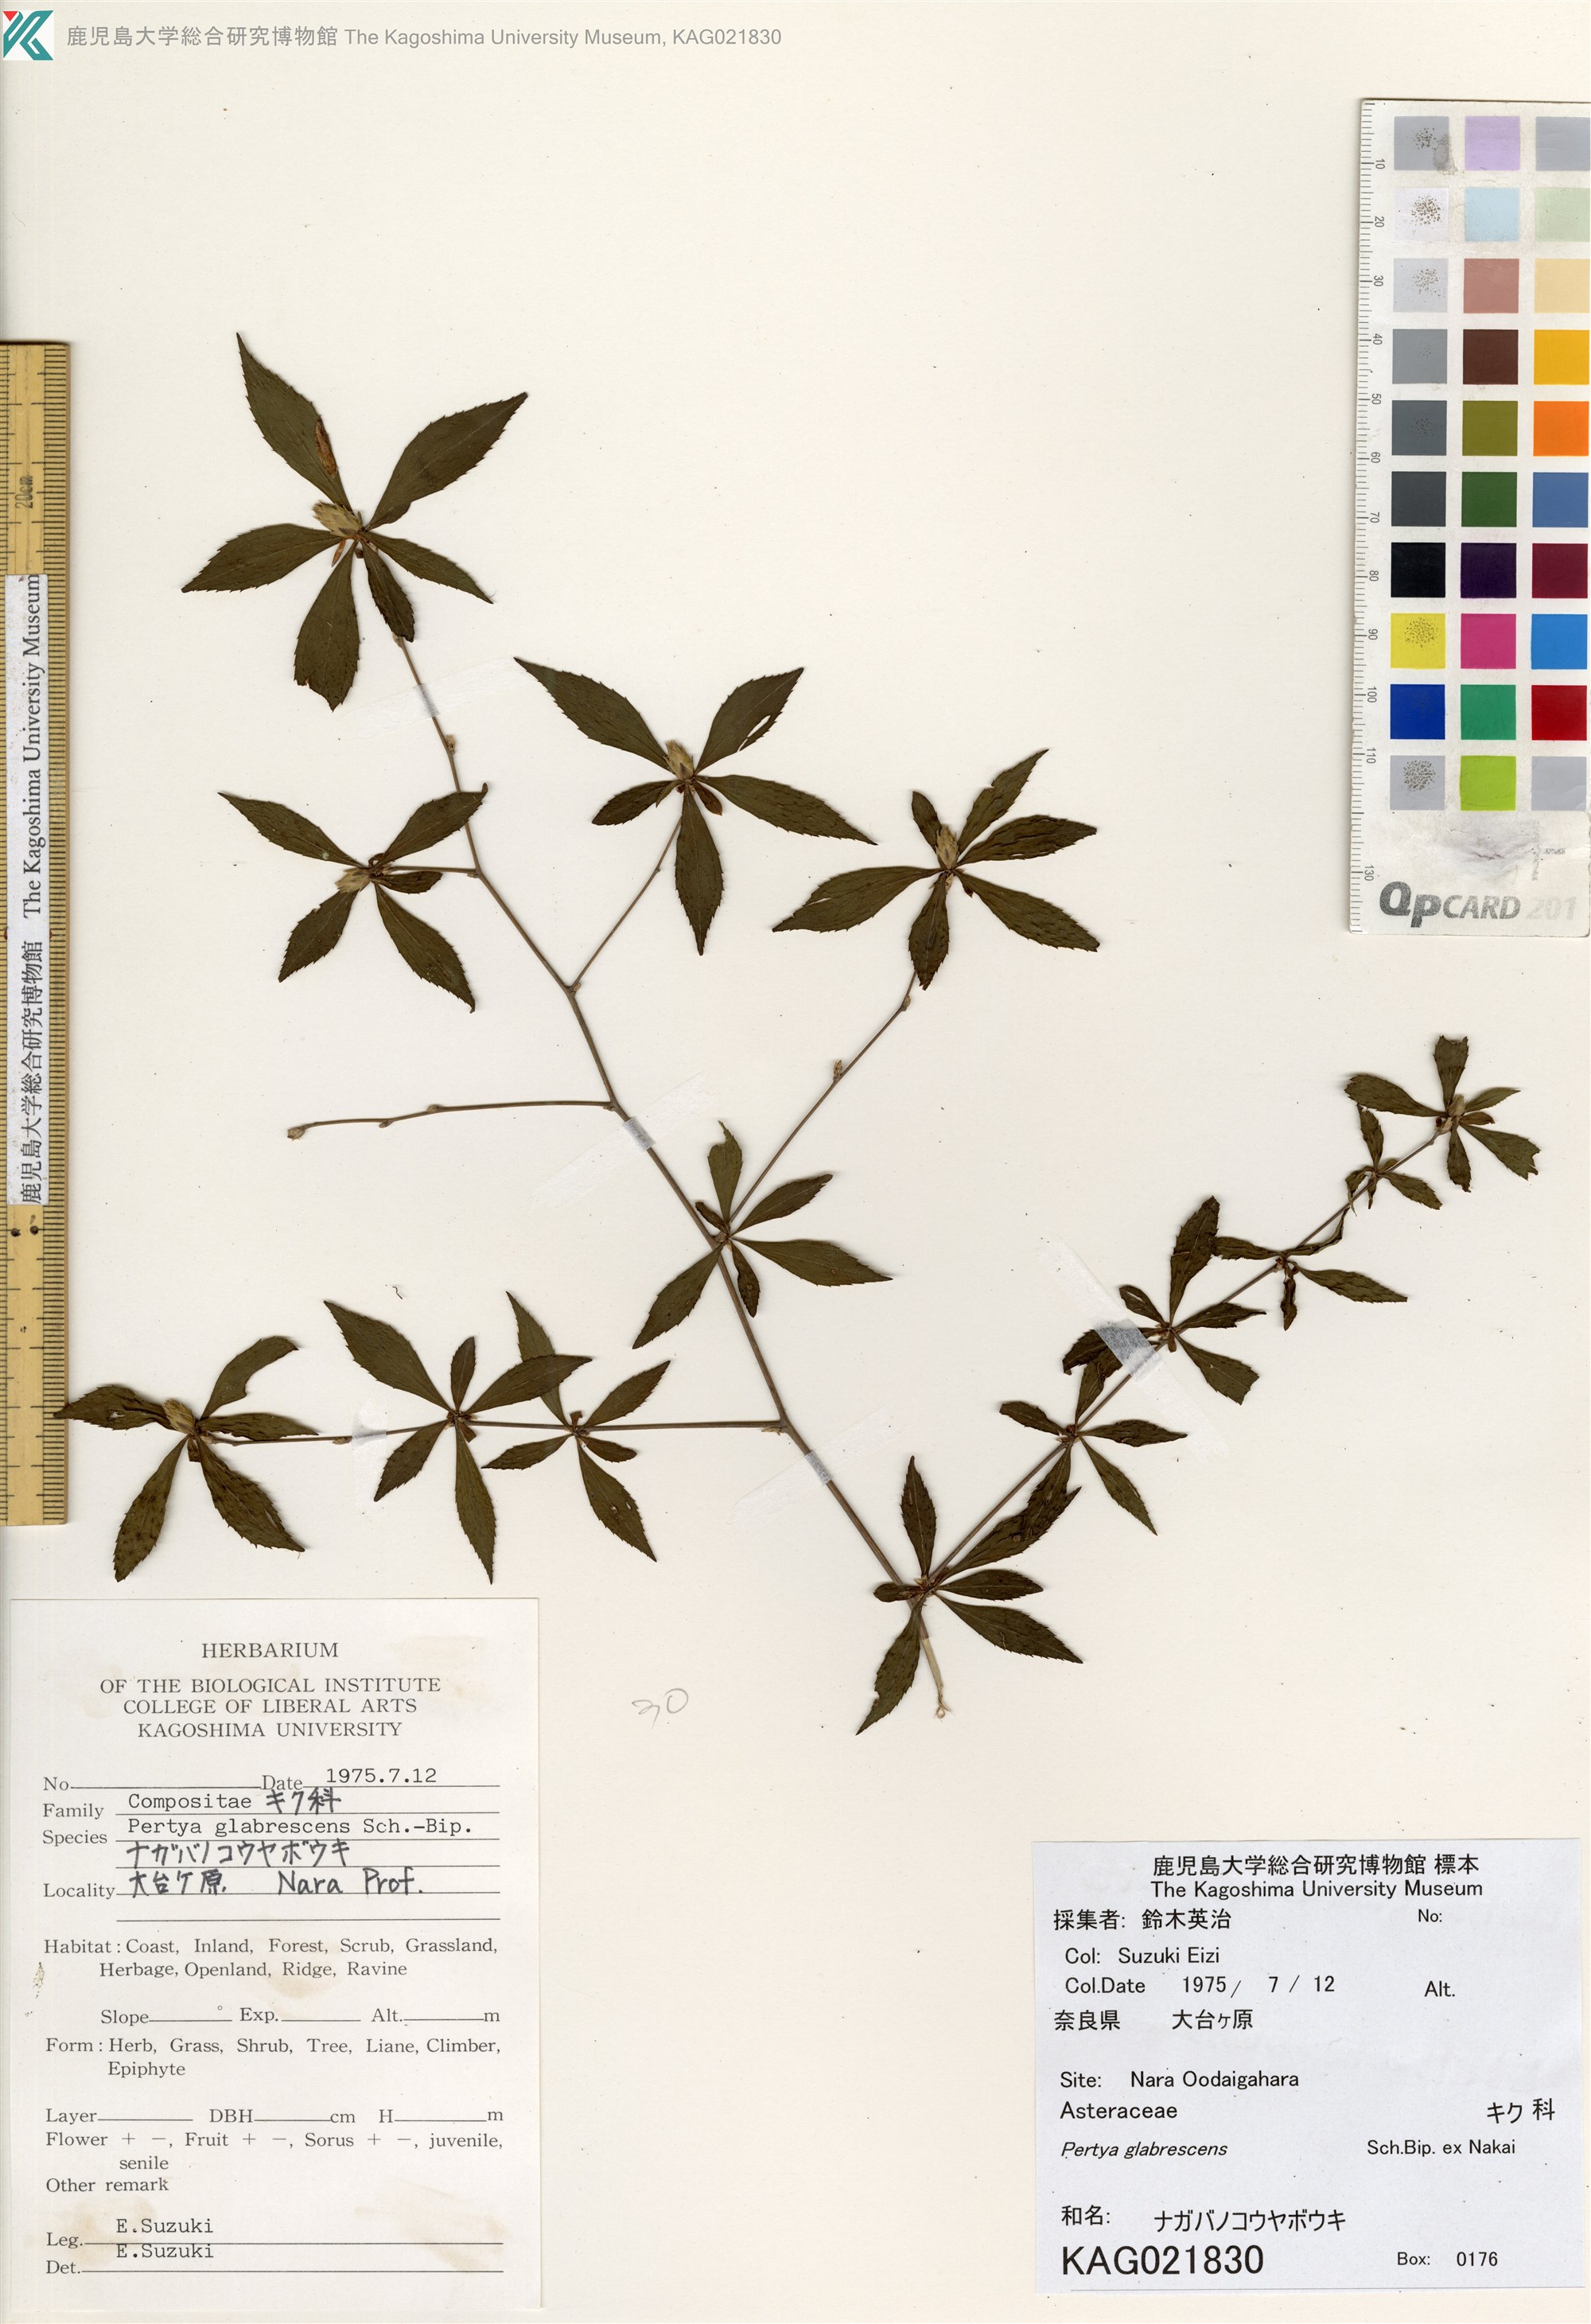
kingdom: Plantae
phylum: Tracheophyta
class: Magnoliopsida
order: Asterales
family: Asteraceae
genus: Pertya
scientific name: Pertya glabrescens
